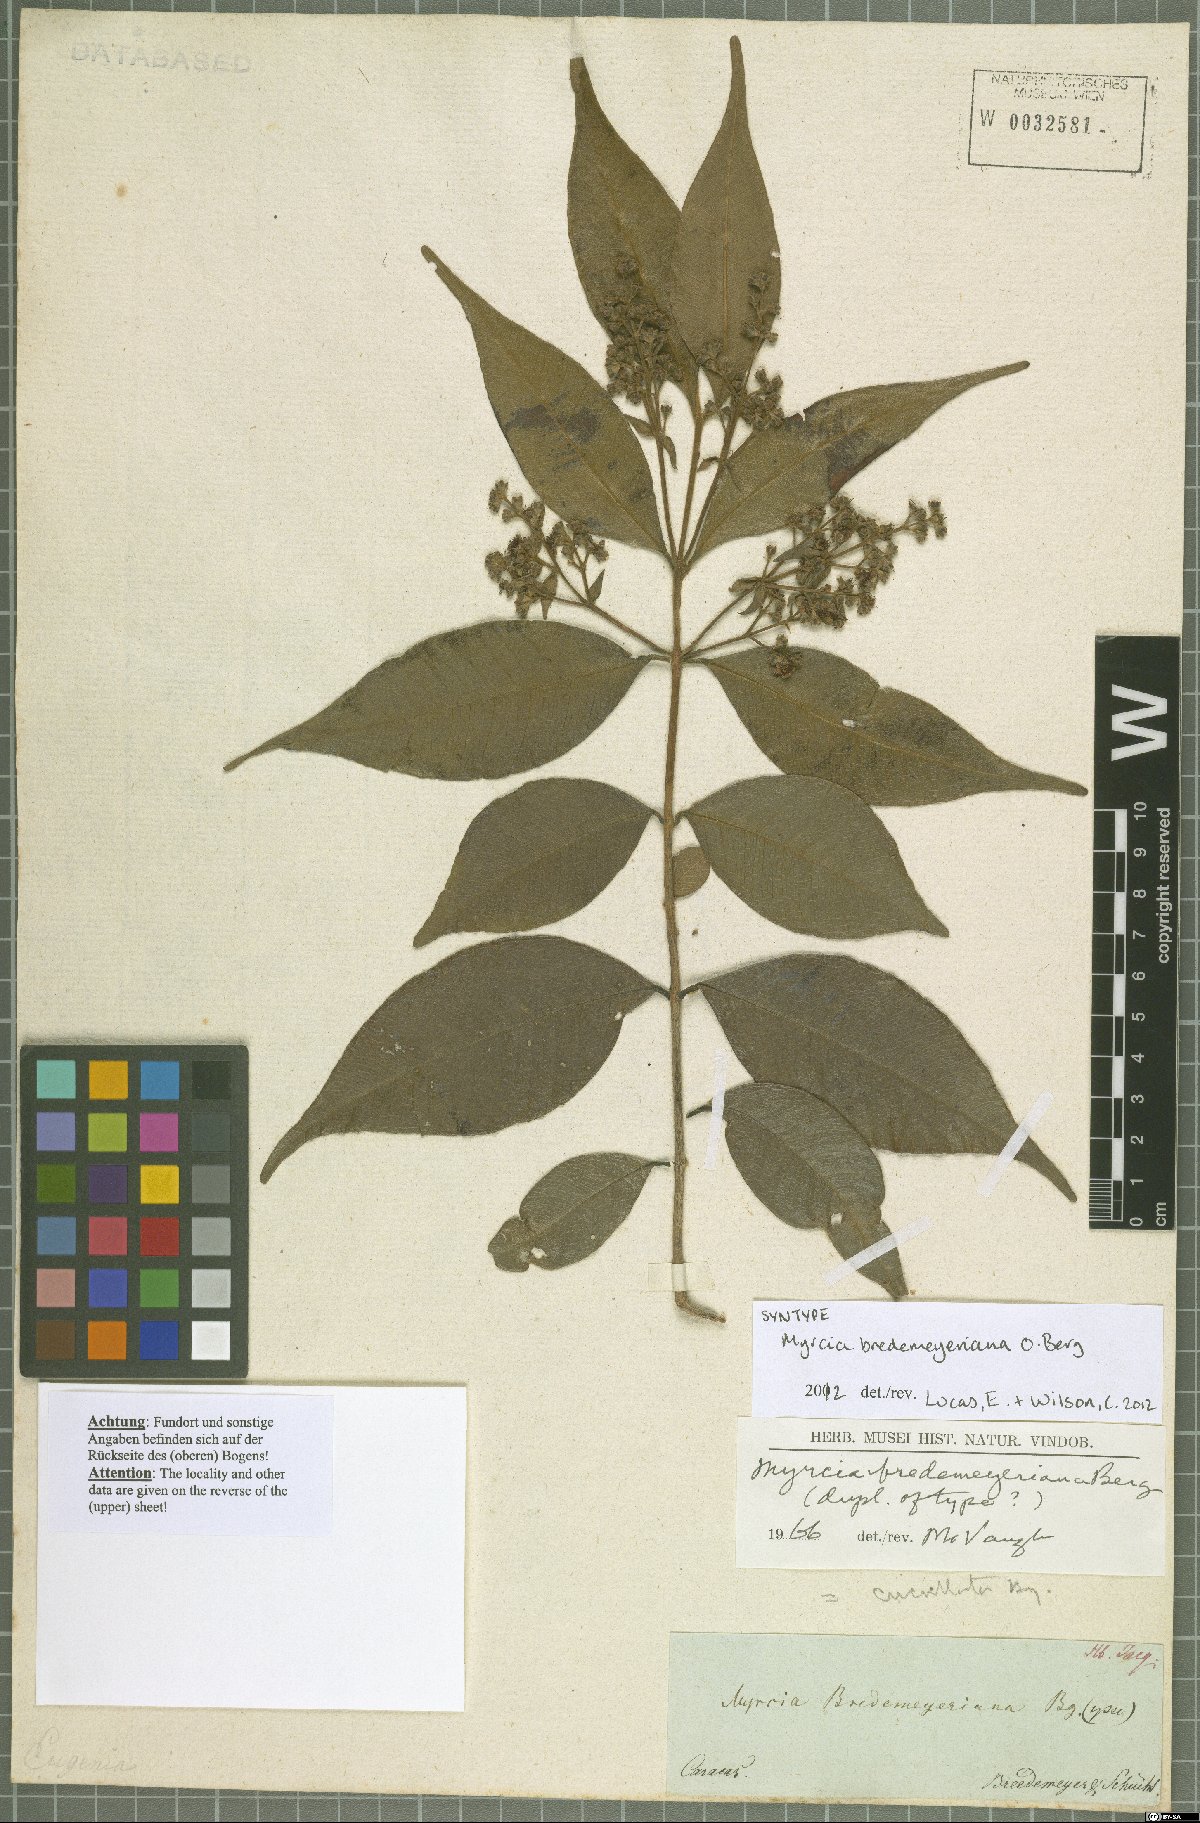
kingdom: Plantae
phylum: Tracheophyta
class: Magnoliopsida
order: Myrtales
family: Myrtaceae
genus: Myrcia
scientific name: Myrcia bredemeyeriana
